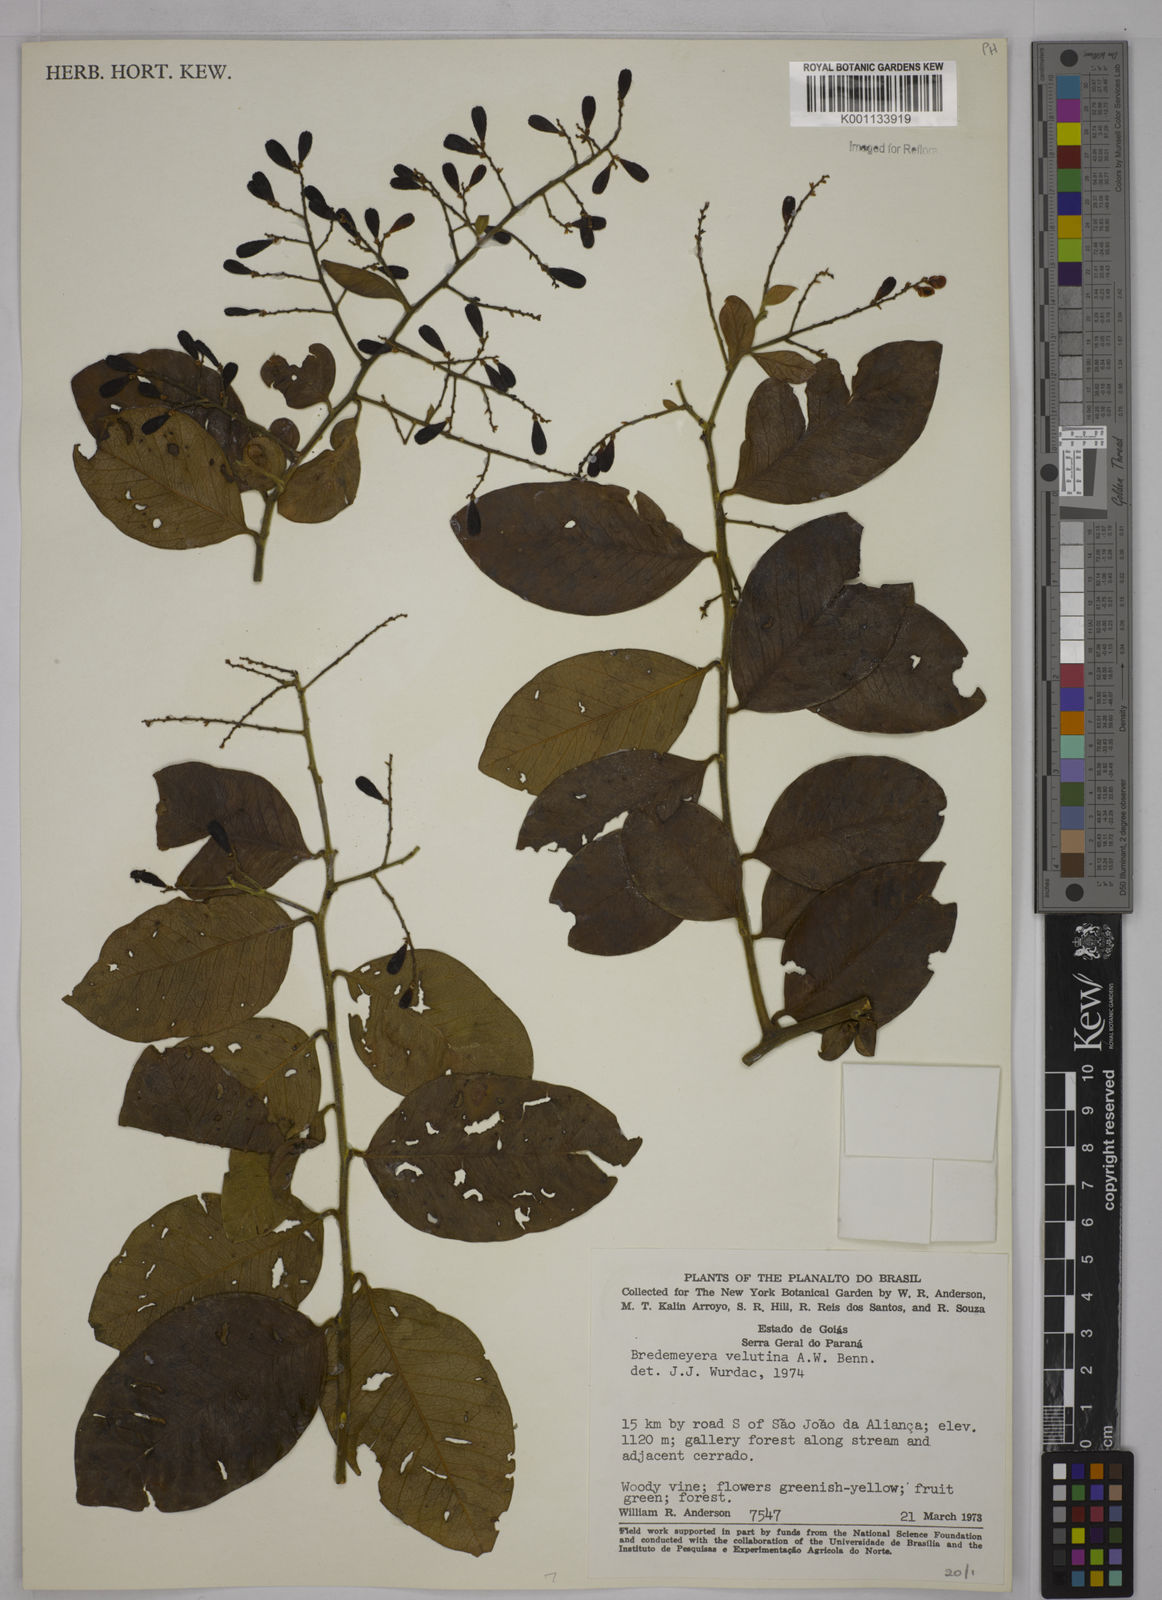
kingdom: Plantae
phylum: Tracheophyta
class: Magnoliopsida
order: Fabales
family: Polygalaceae
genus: Bredemeyera
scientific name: Bredemeyera hebeclada
